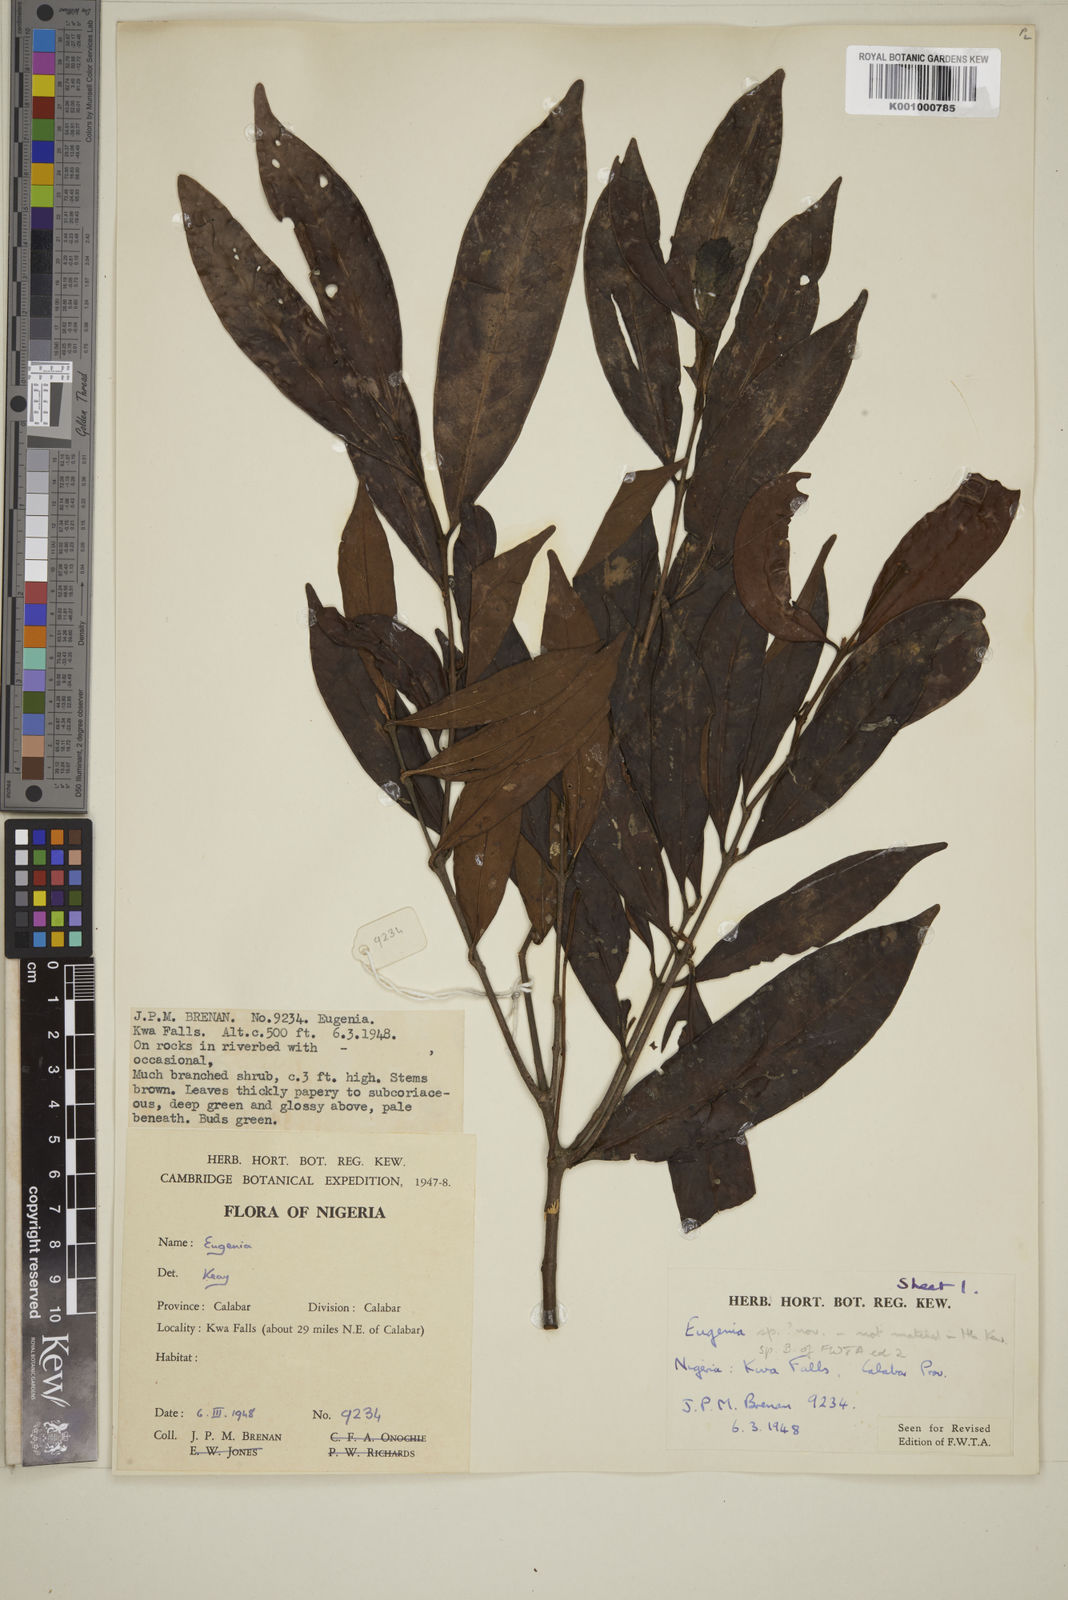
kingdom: Plantae
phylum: Tracheophyta
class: Magnoliopsida
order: Myrtales
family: Myrtaceae
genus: Eugenia
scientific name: Eugenia
